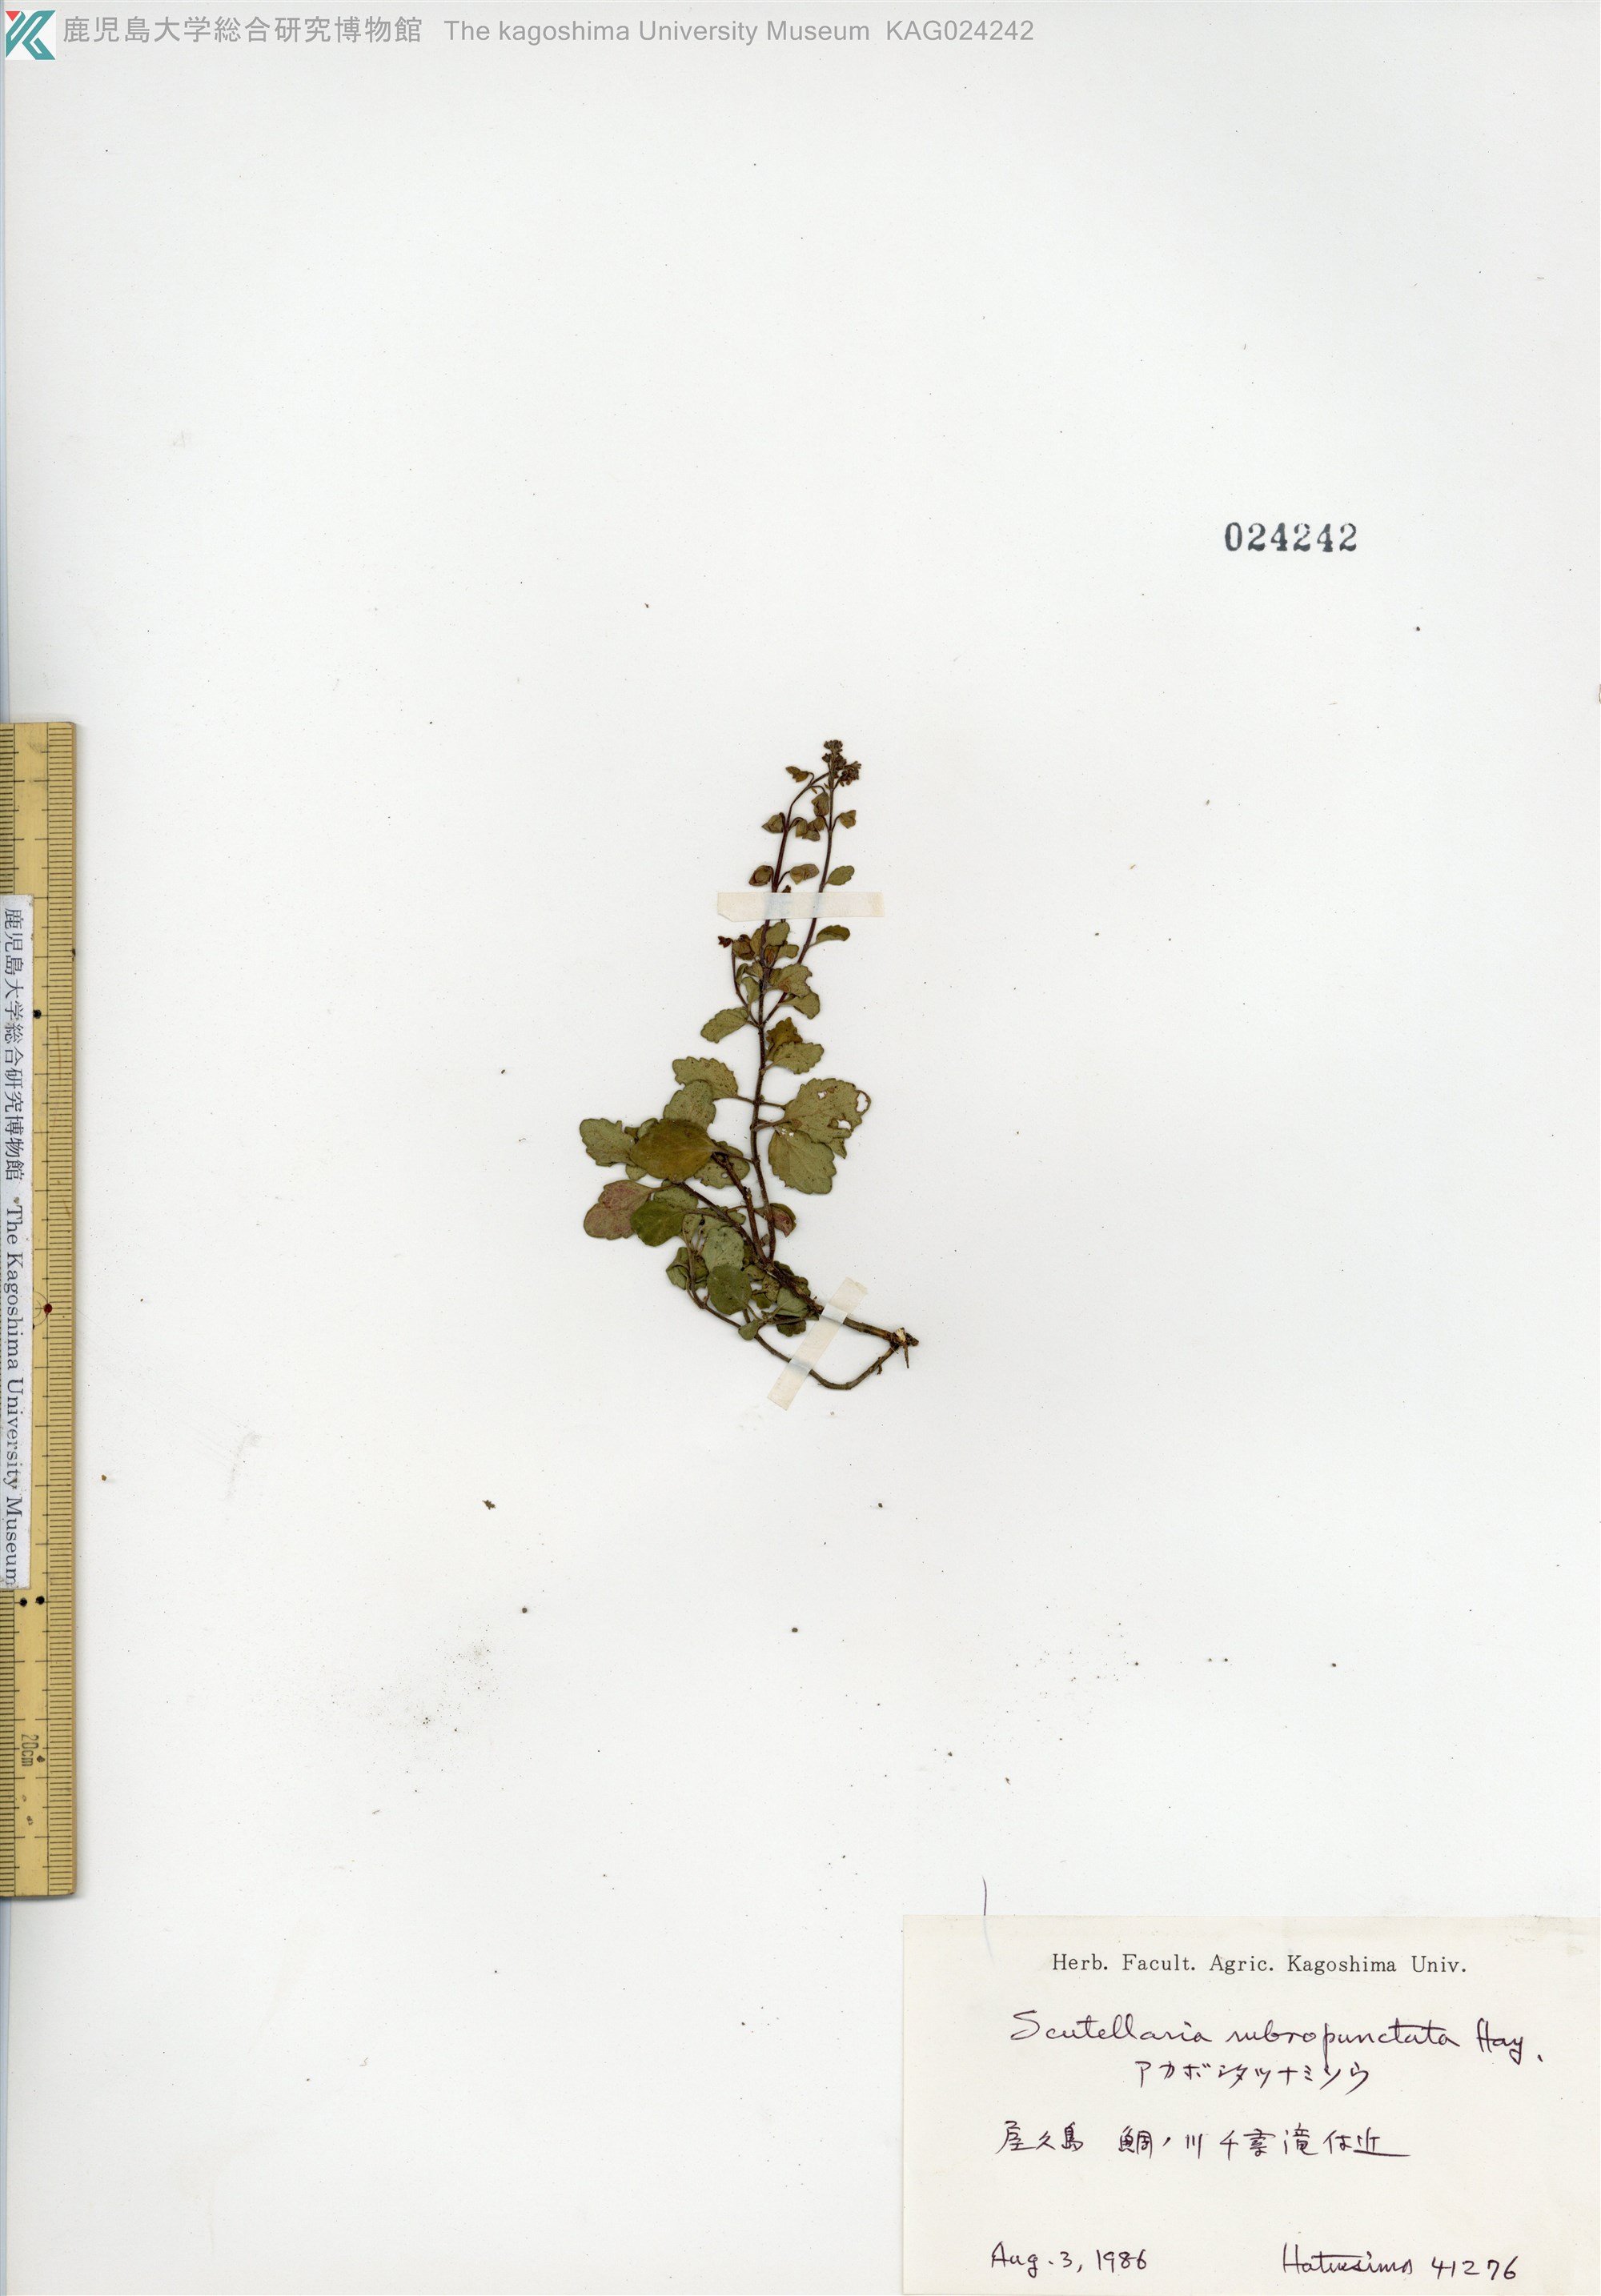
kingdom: Plantae
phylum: Tracheophyta
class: Magnoliopsida
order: Lamiales
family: Lamiaceae
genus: Scutellaria
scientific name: Scutellaria rubropunctata
